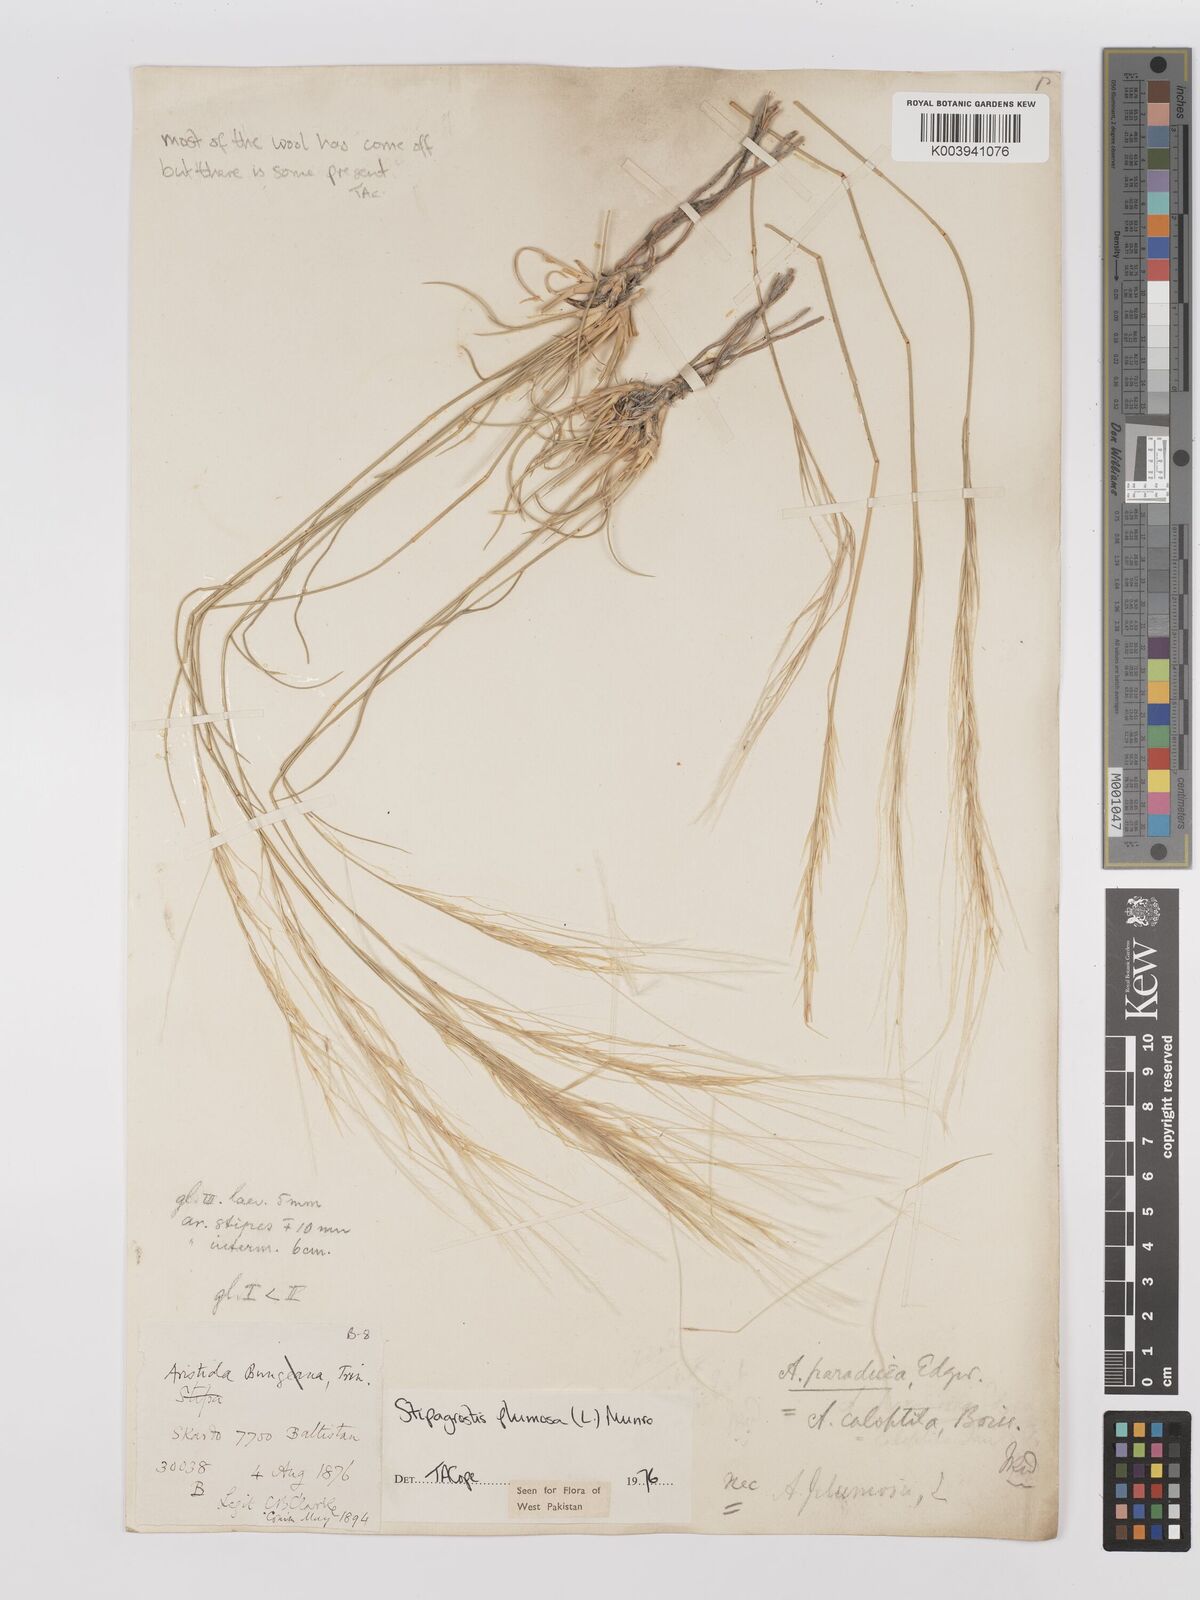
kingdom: Plantae
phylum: Tracheophyta
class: Liliopsida
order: Poales
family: Poaceae
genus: Stipagrostis
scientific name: Stipagrostis
